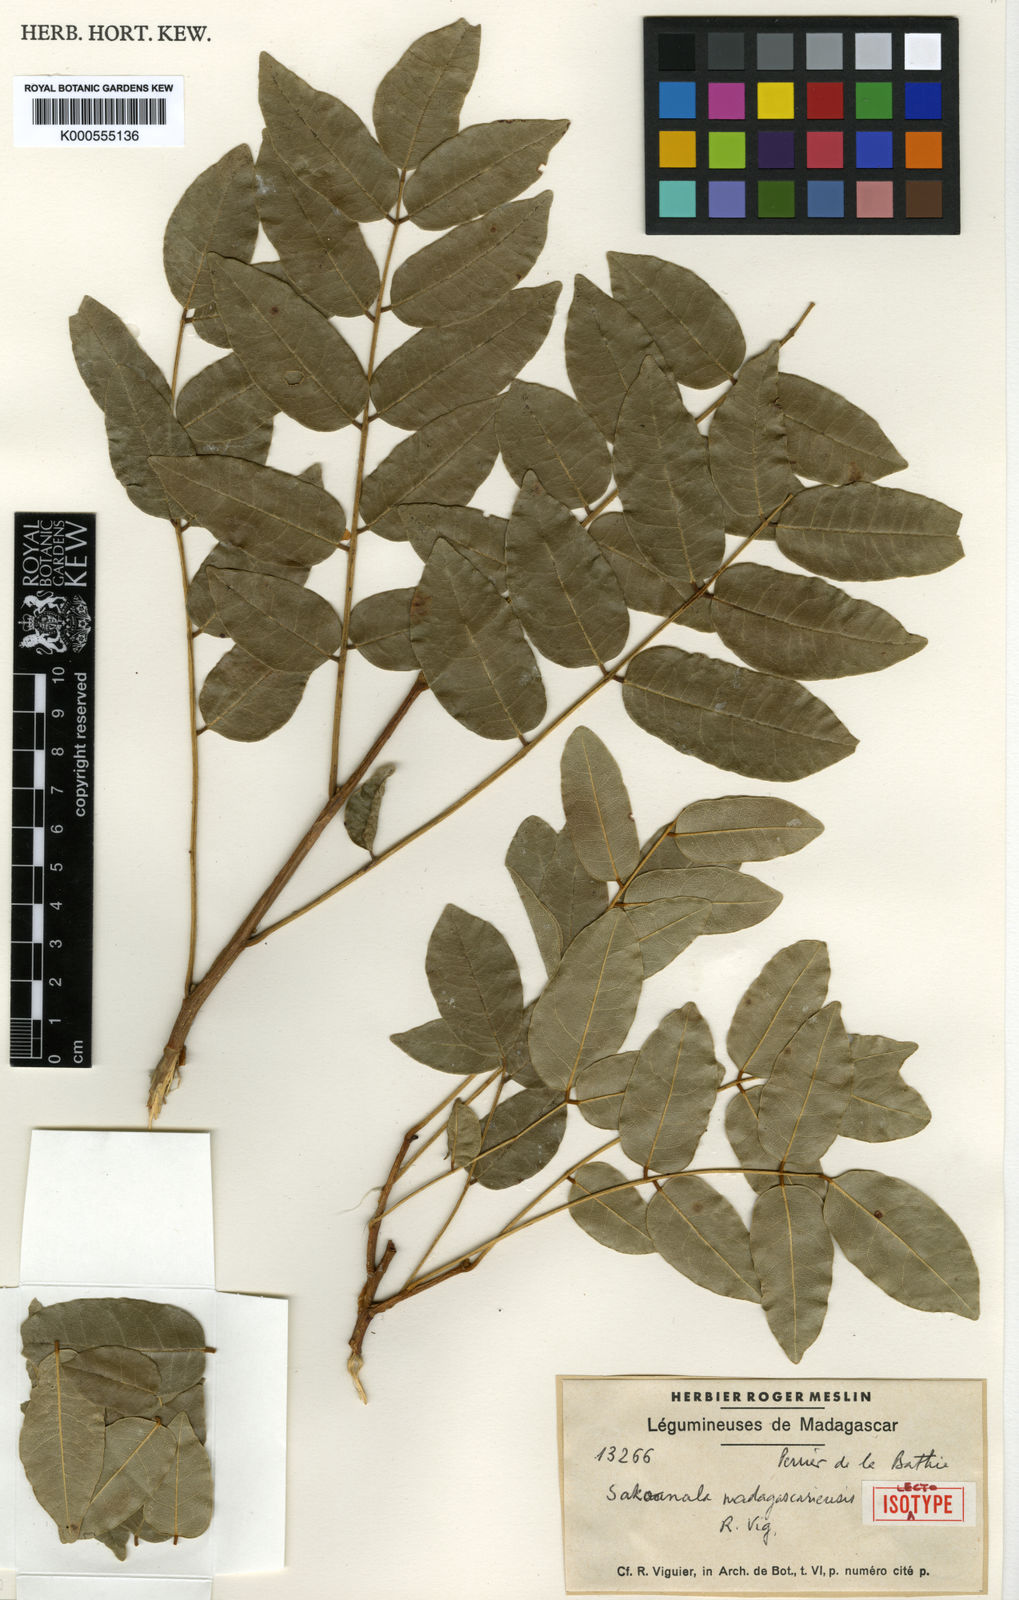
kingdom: Plantae
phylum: Tracheophyta
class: Magnoliopsida
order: Fabales
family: Fabaceae
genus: Sakoanala
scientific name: Sakoanala madagascariensis
